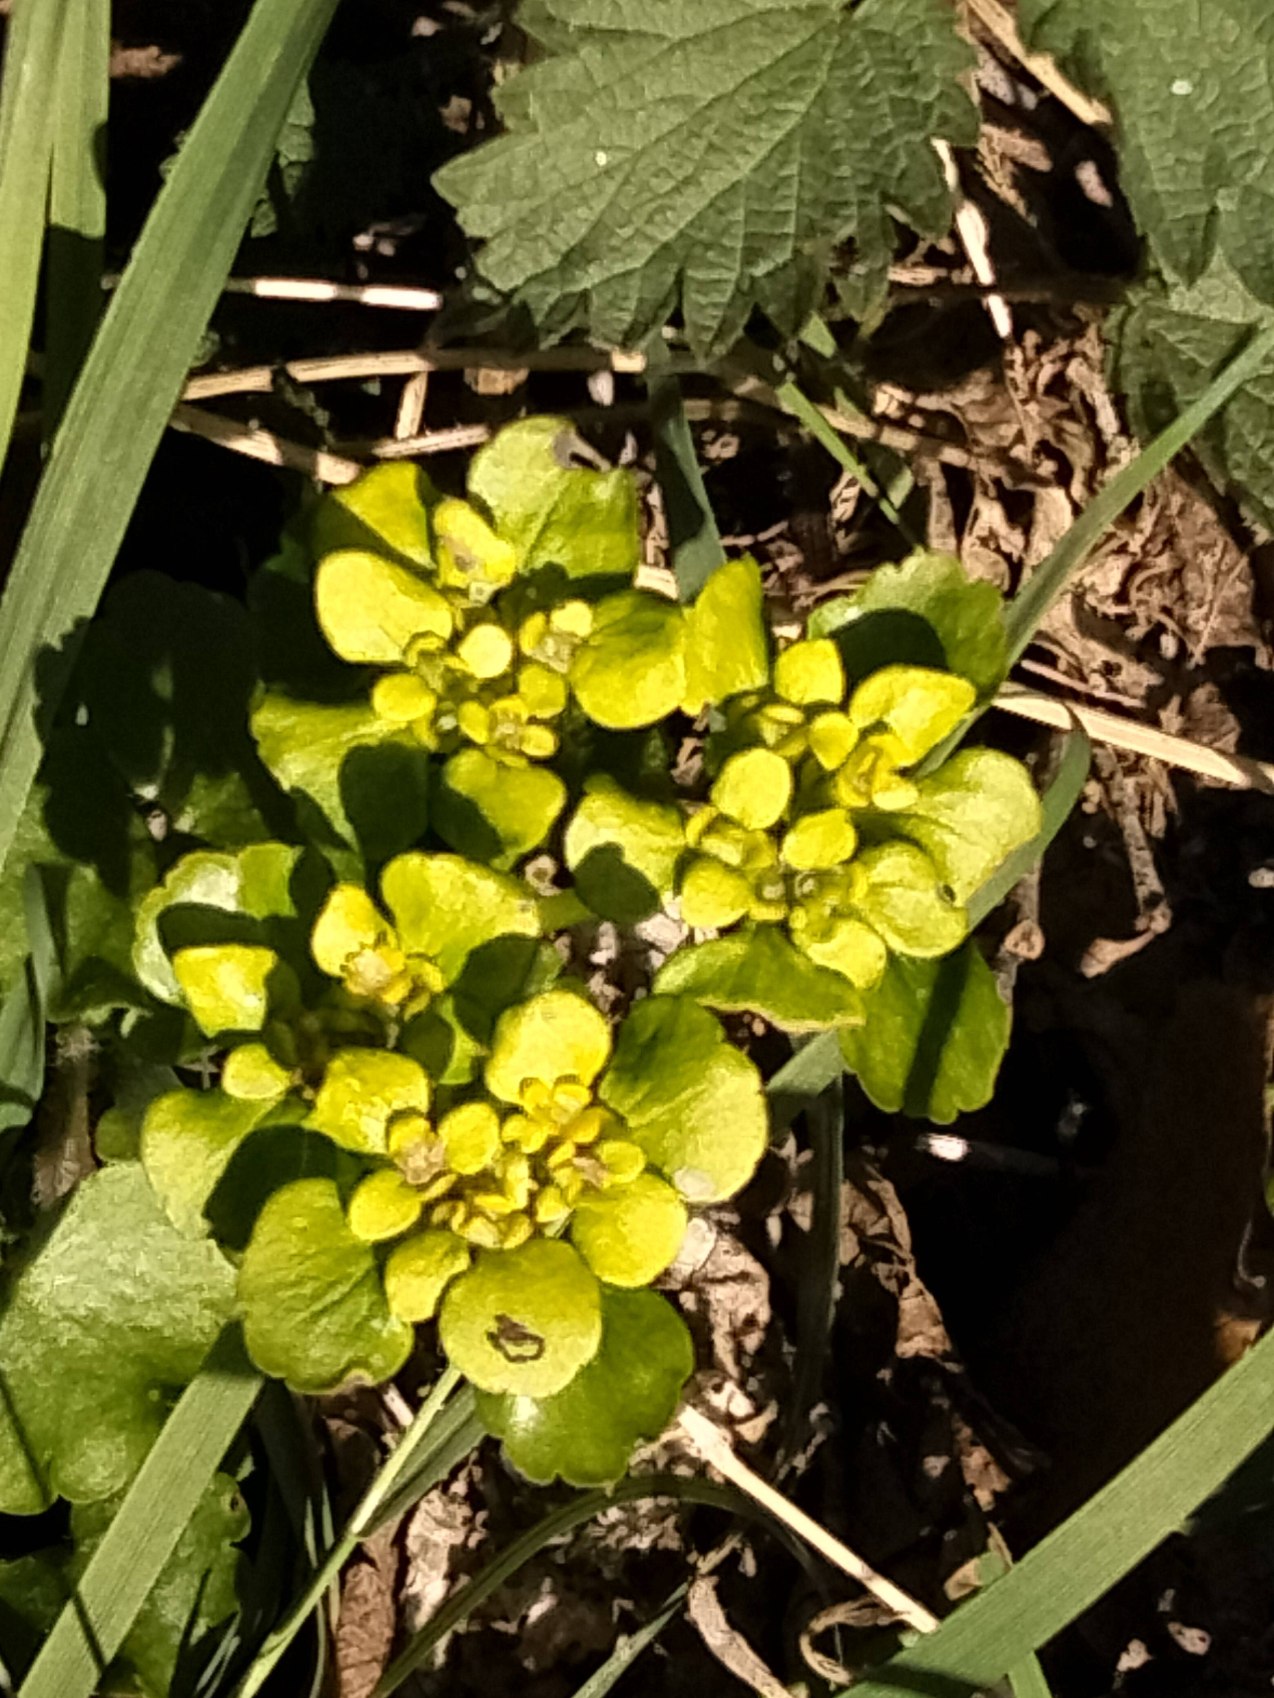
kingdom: Plantae
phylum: Tracheophyta
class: Magnoliopsida
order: Saxifragales
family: Saxifragaceae
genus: Chrysosplenium
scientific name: Chrysosplenium alternifolium
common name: Almindelig milturt
